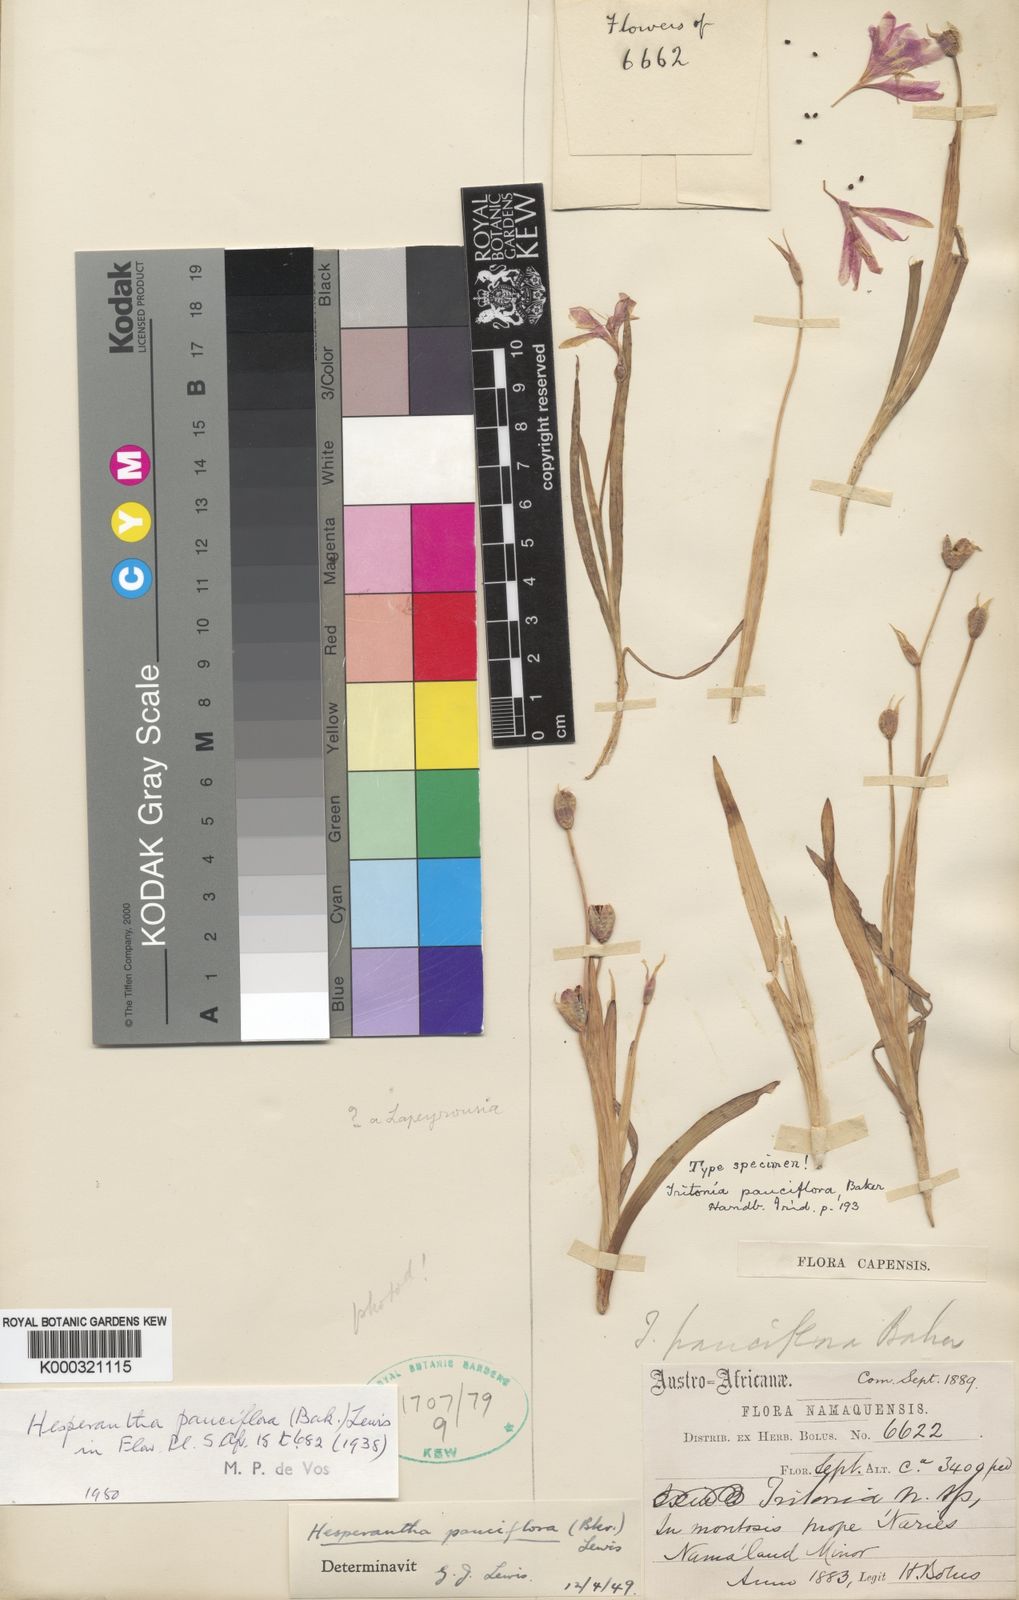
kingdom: Plantae
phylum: Tracheophyta
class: Liliopsida
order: Asparagales
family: Iridaceae
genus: Hesperantha
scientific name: Hesperantha pauciflora
